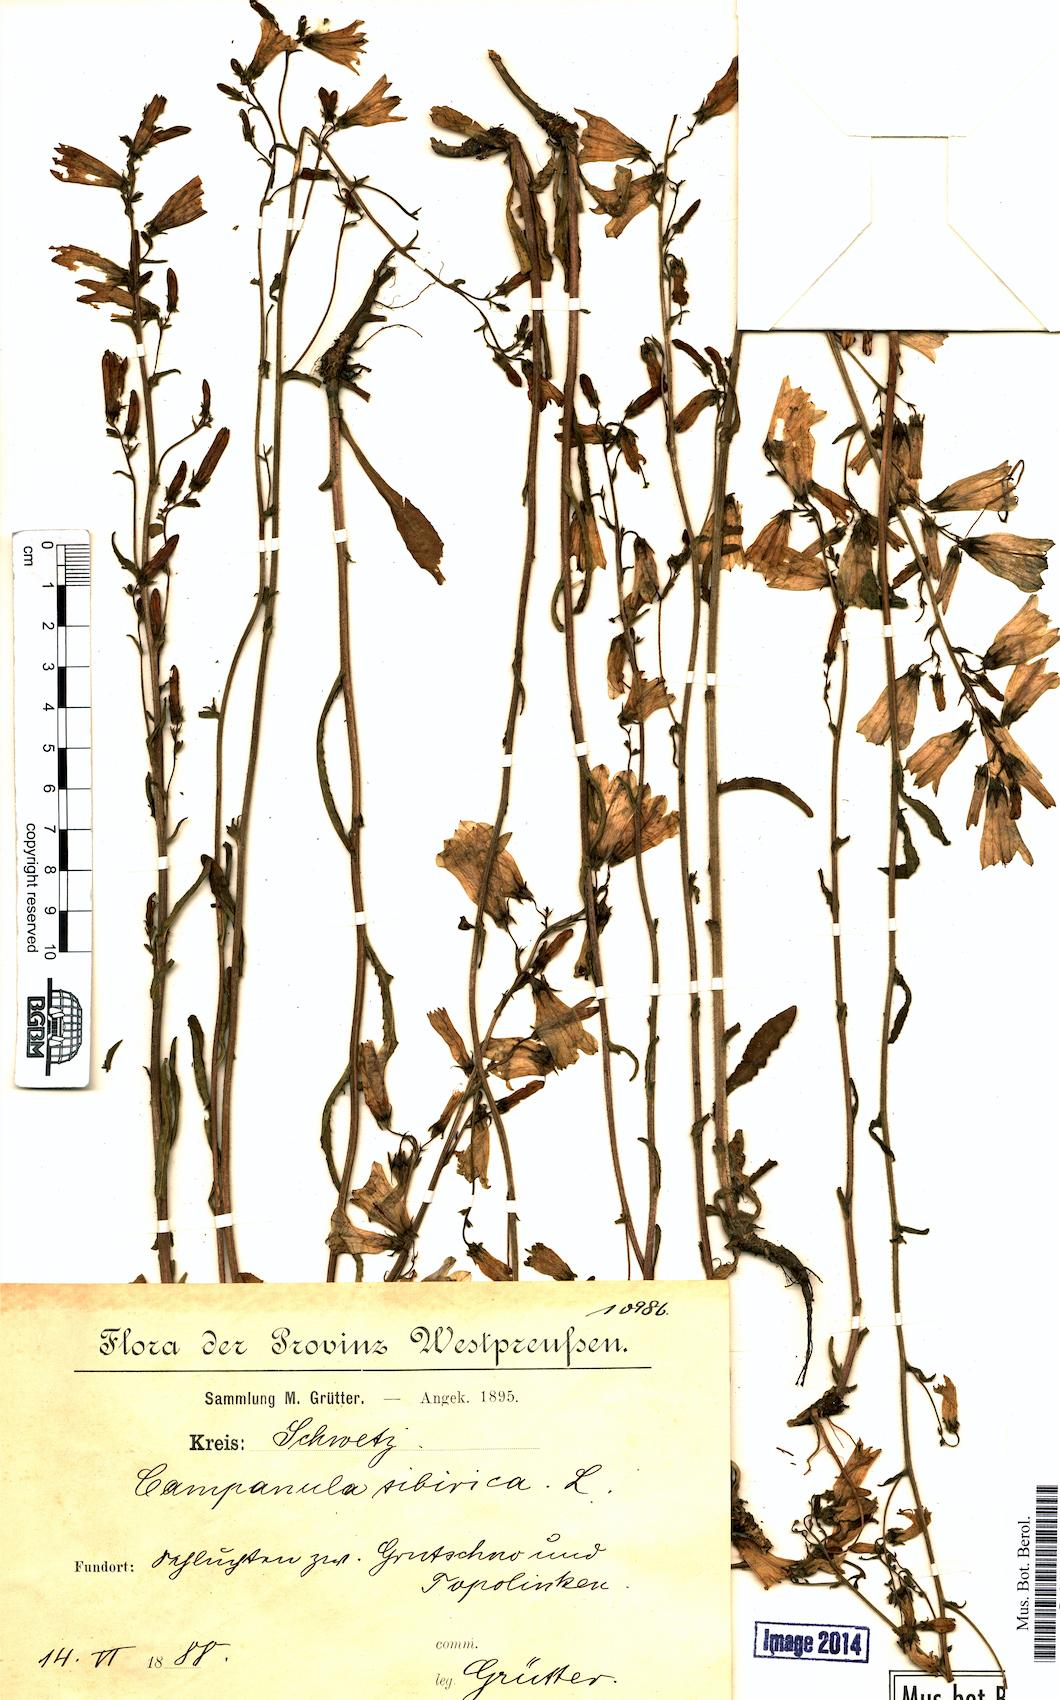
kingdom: Plantae
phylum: Tracheophyta
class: Magnoliopsida
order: Asterales
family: Campanulaceae
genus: Campanula
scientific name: Campanula sibirica
